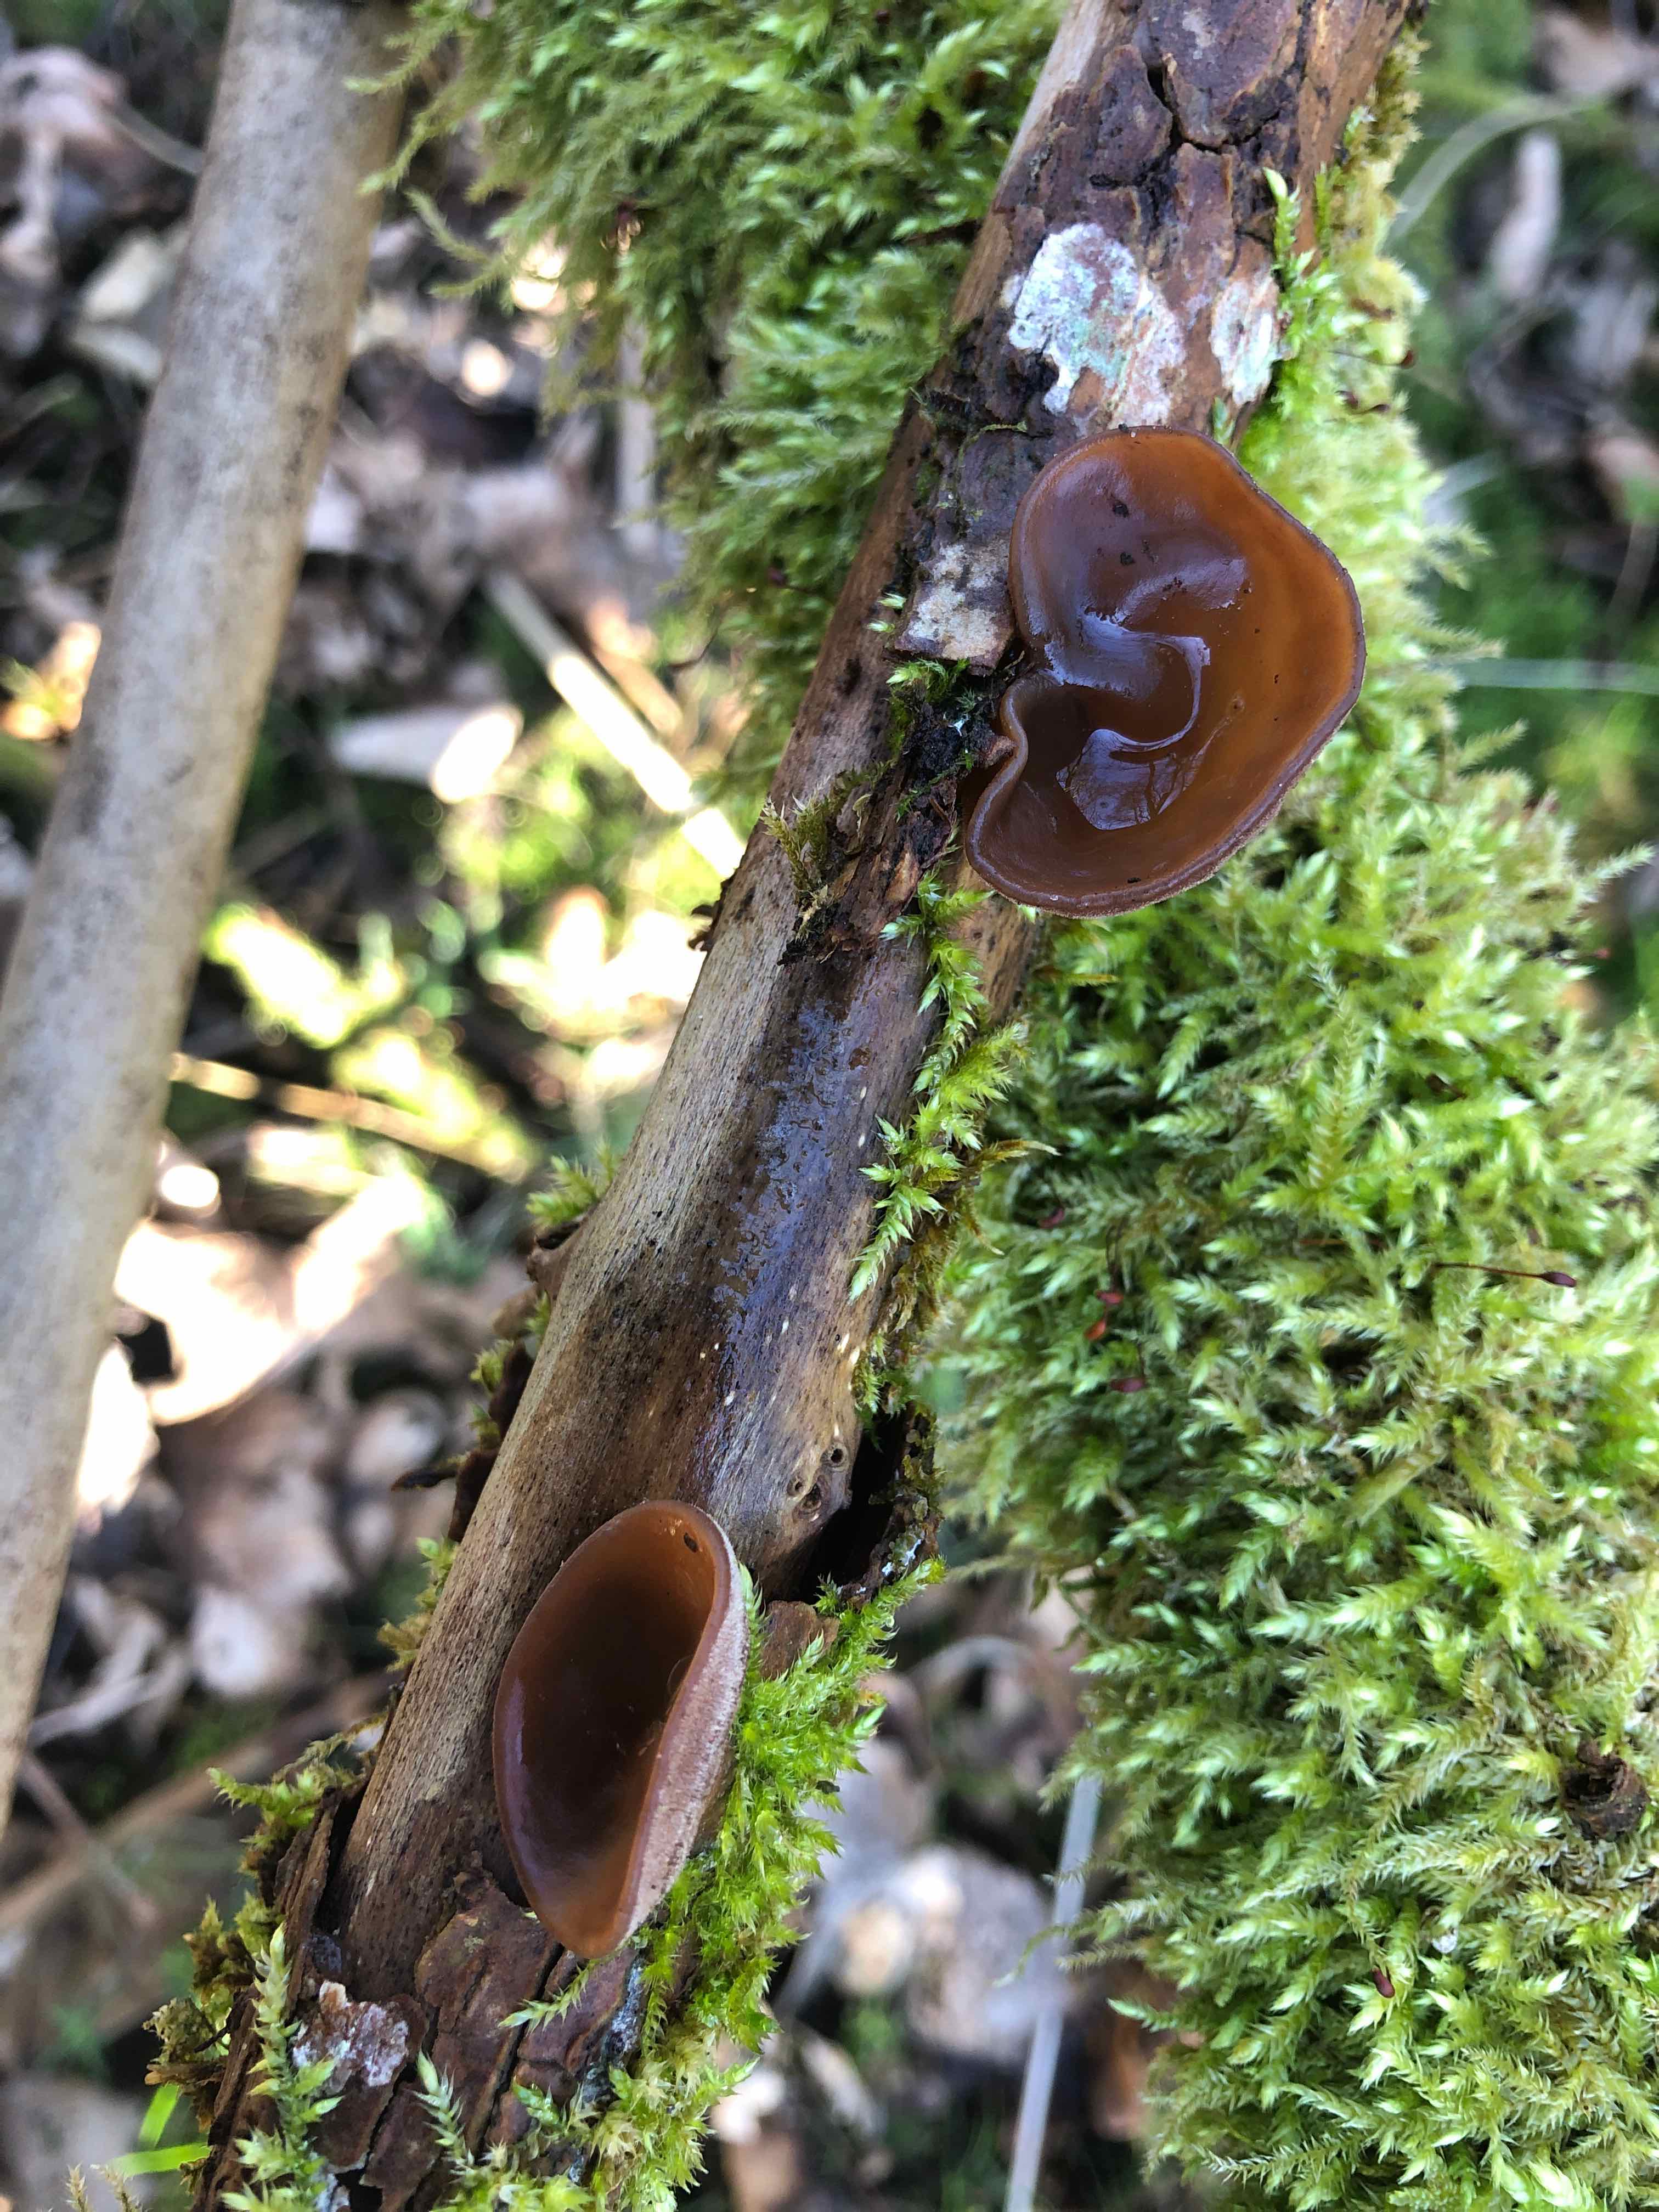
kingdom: Fungi
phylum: Basidiomycota
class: Agaricomycetes
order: Auriculariales
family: Auriculariaceae
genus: Auricularia
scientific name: Auricularia auricula-judae
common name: almindelig judasøre
